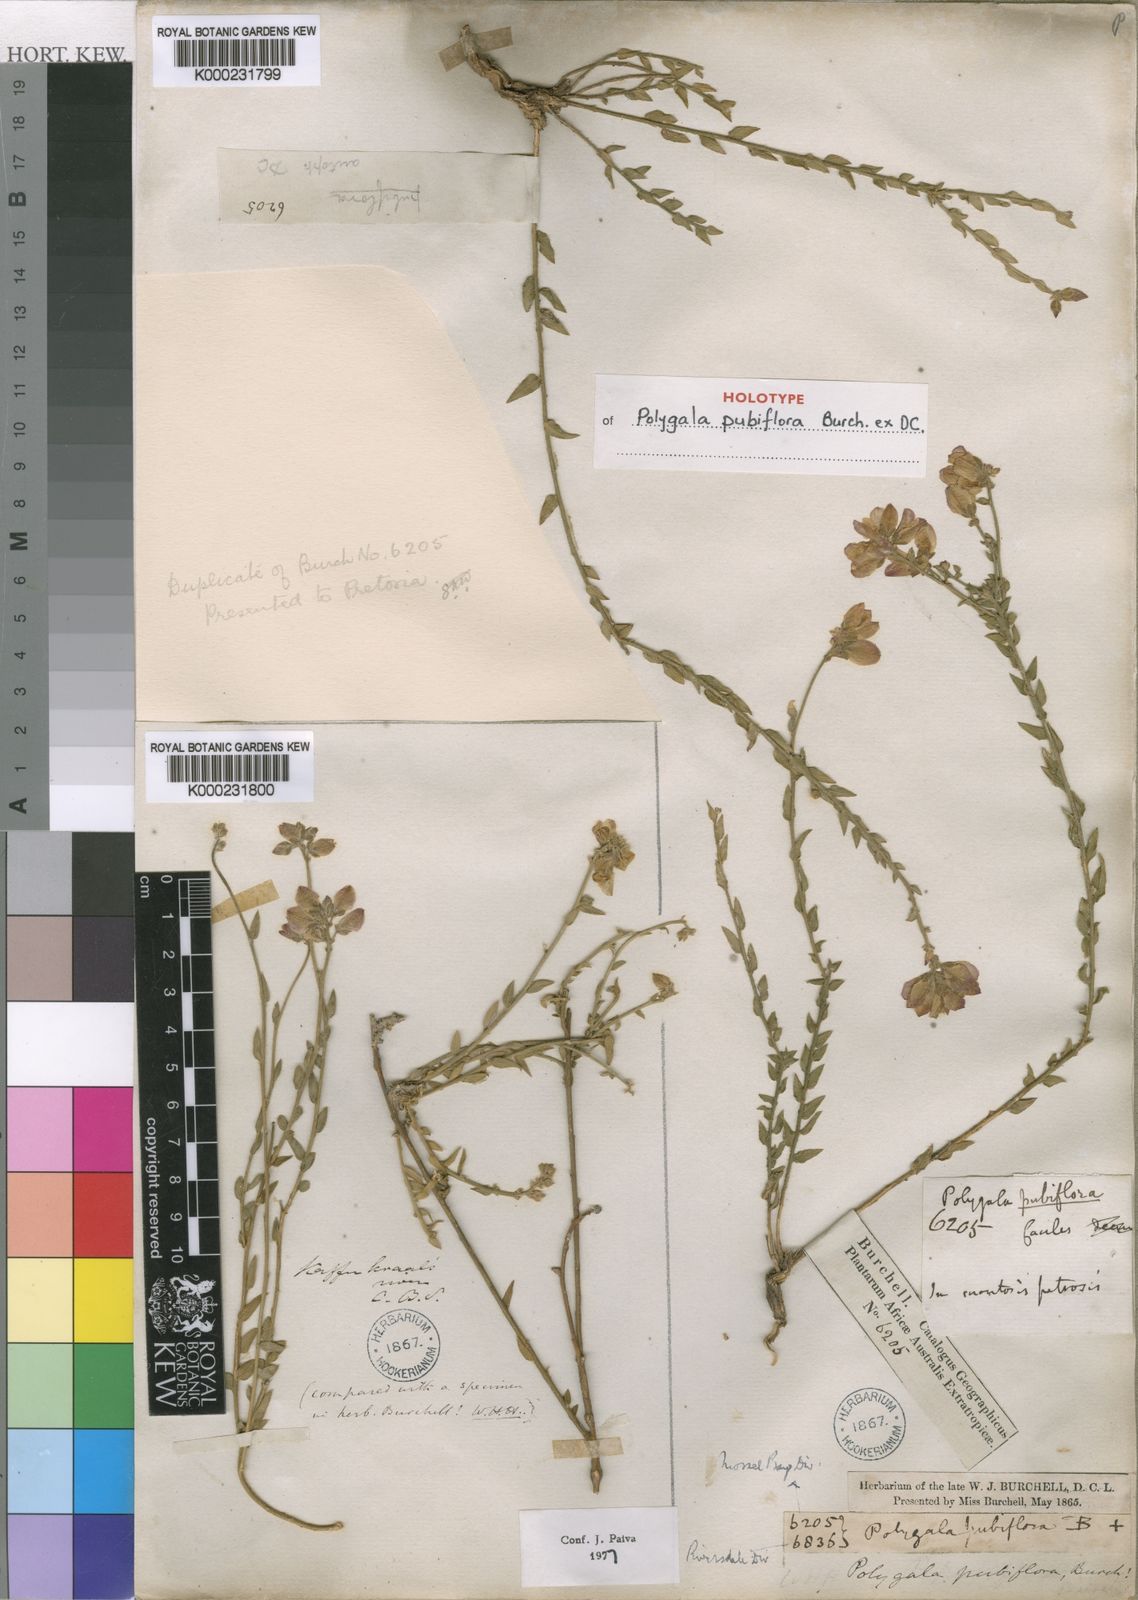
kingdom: Plantae
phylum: Tracheophyta
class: Magnoliopsida
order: Fabales
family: Polygalaceae
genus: Polygala
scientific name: Polygala pubiflora
